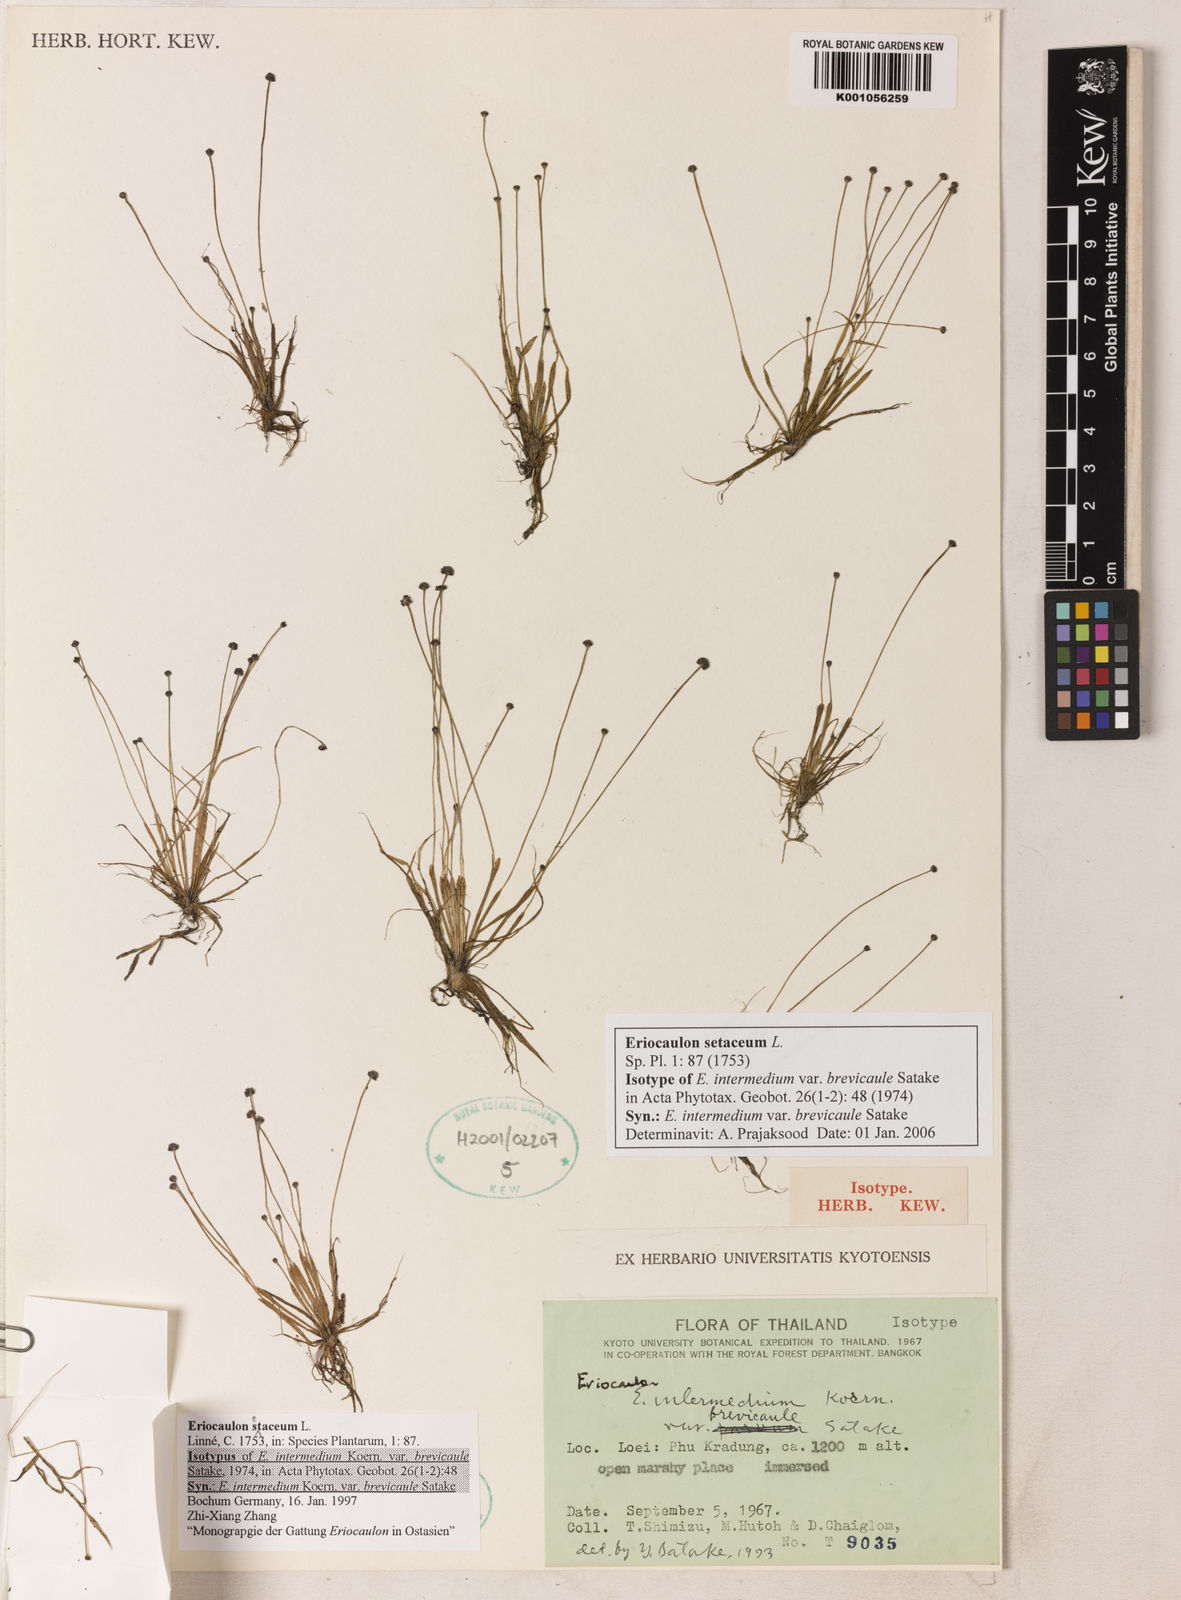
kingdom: Plantae
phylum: Tracheophyta
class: Liliopsida
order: Poales
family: Eriocaulaceae
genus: Eriocaulon
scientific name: Eriocaulon setaceum
